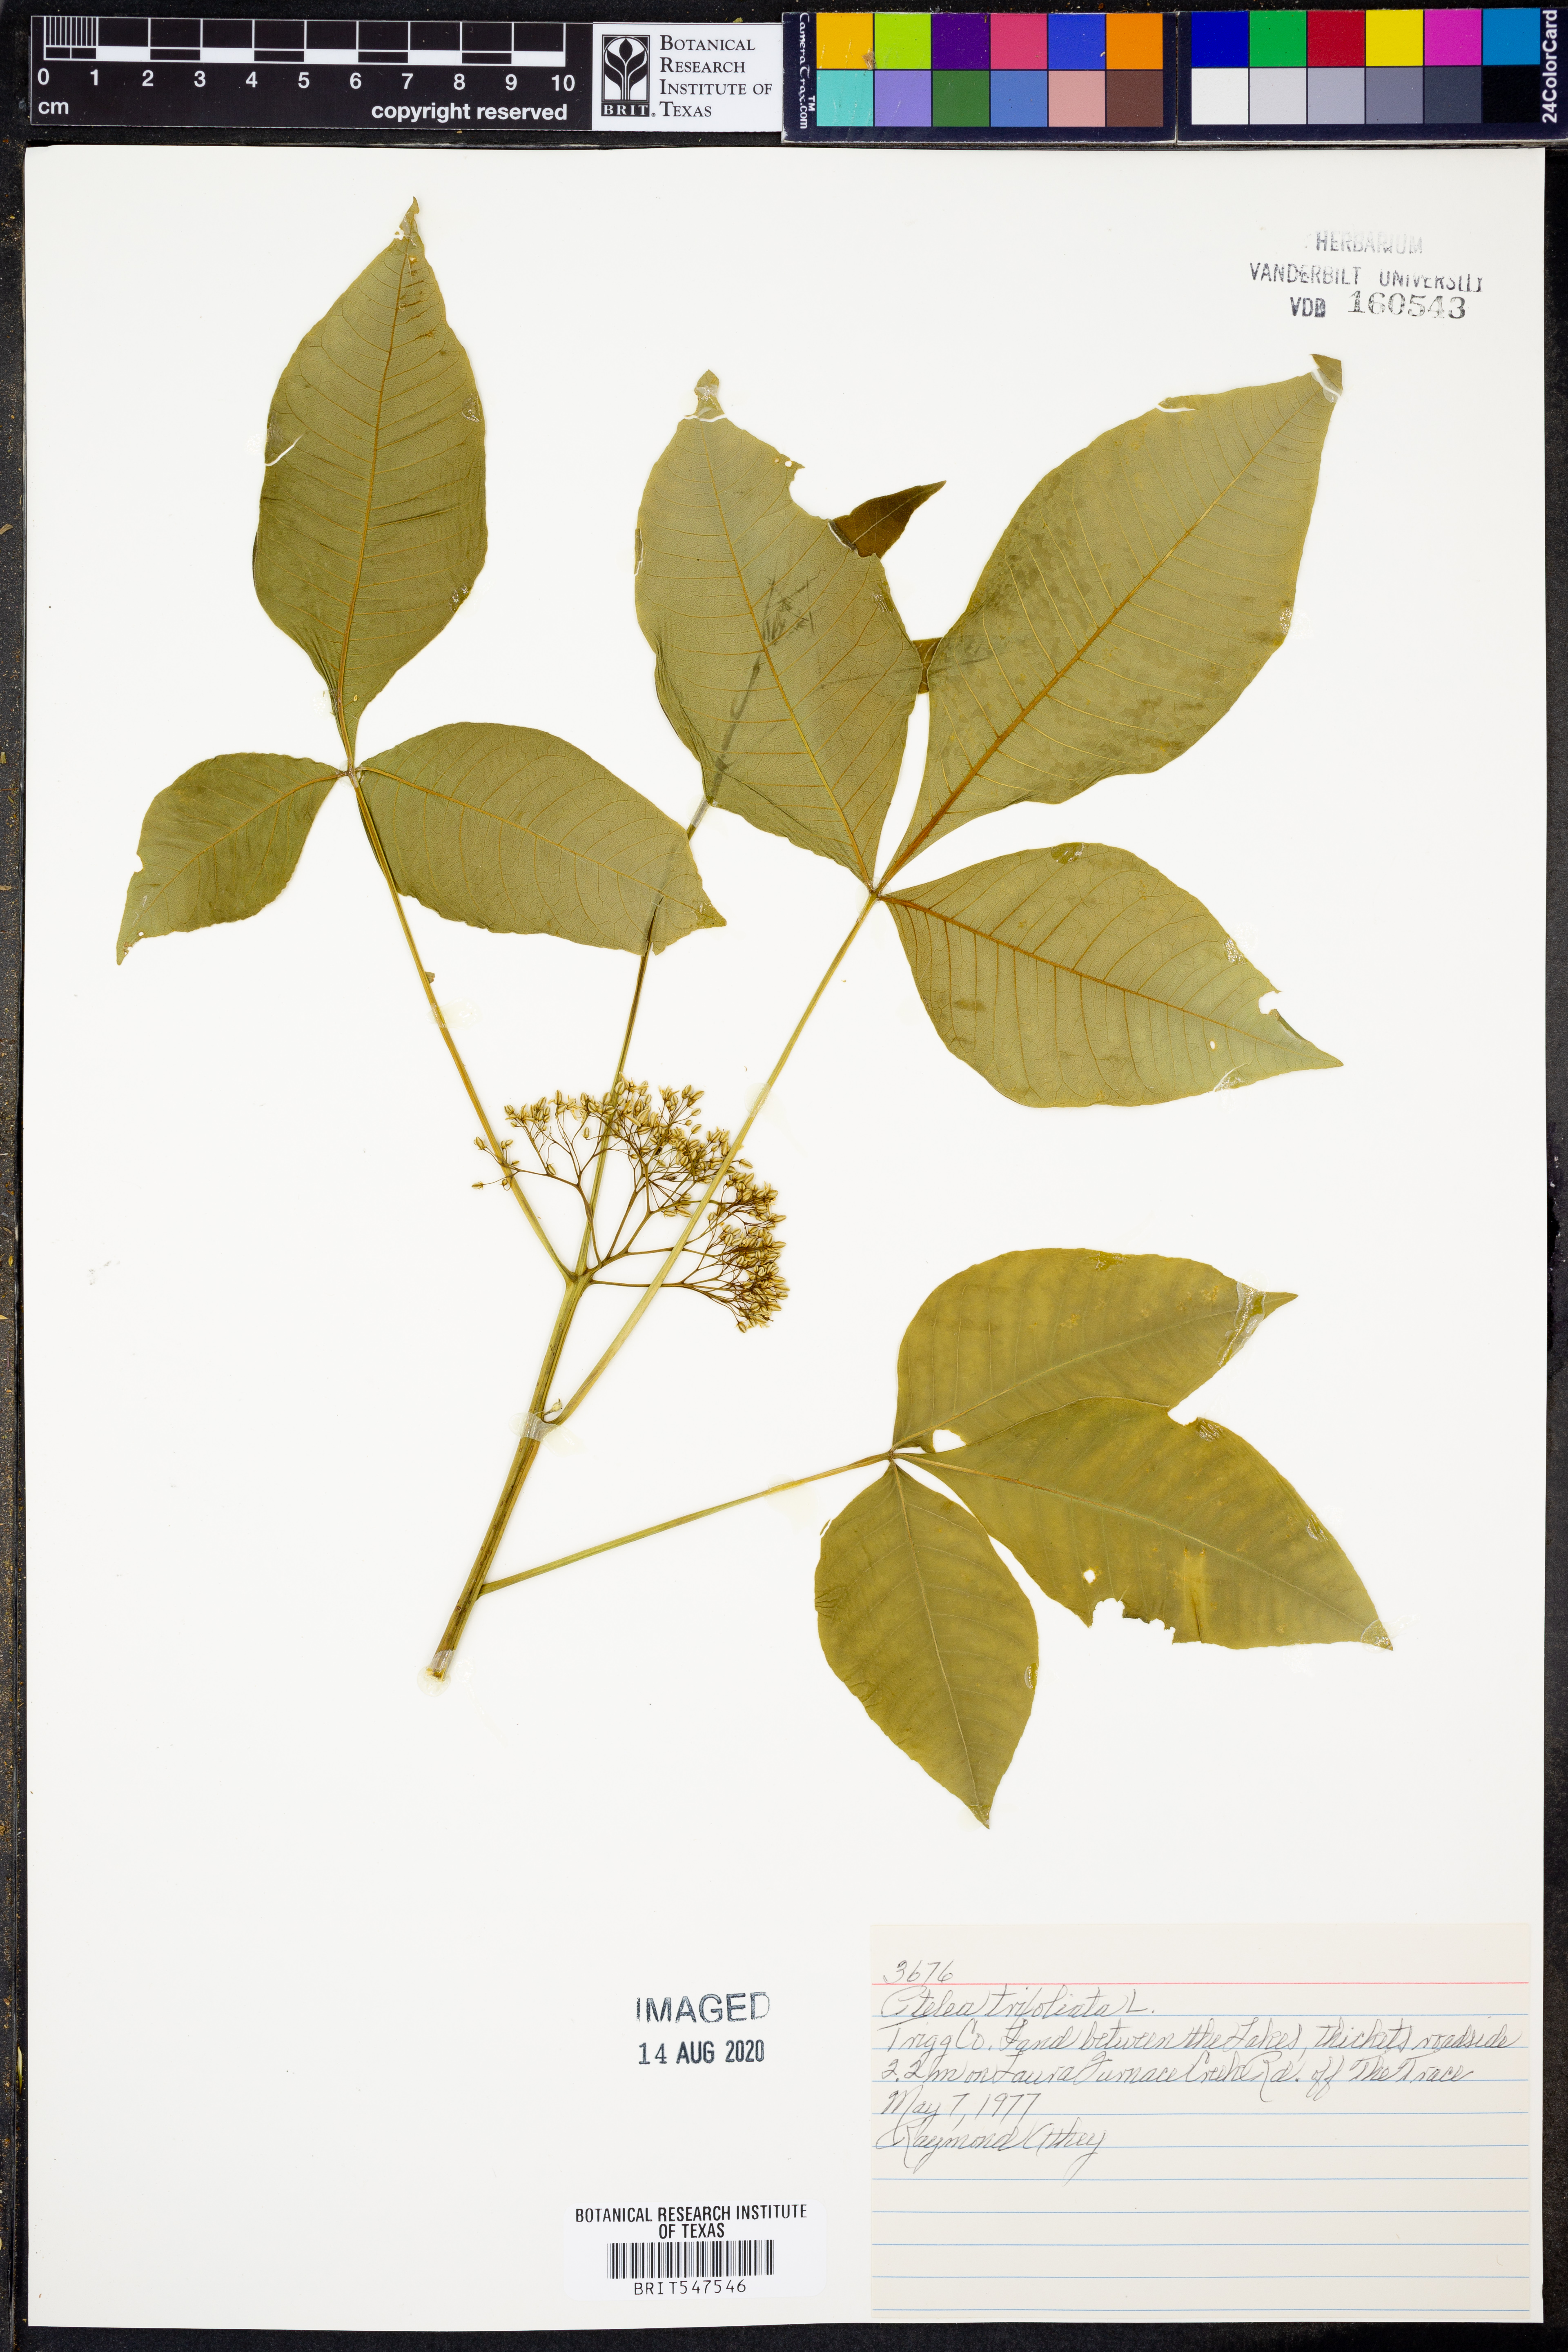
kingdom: Plantae
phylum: Tracheophyta
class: Magnoliopsida
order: Sapindales
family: Rutaceae
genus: Ptelea
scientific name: Ptelea trifoliata
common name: Common hop-tree
